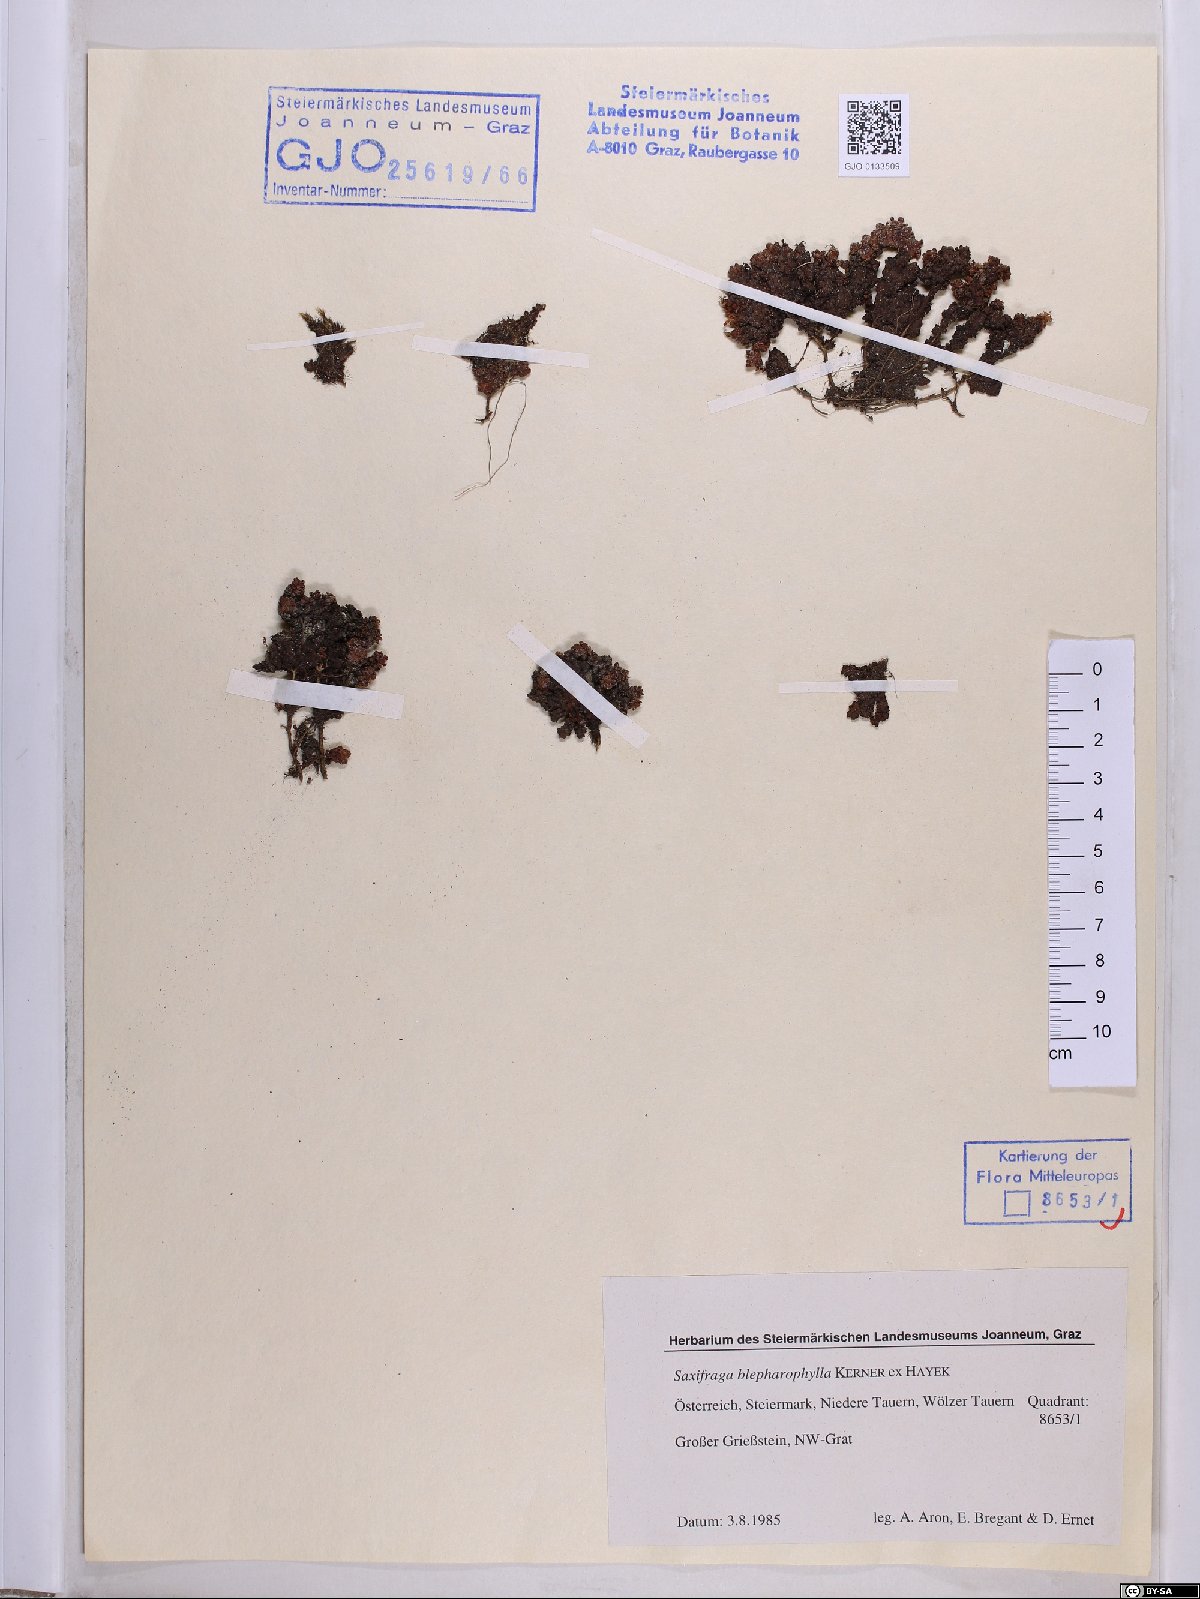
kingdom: Plantae
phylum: Tracheophyta
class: Magnoliopsida
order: Saxifragales
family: Saxifragaceae
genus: Saxifraga
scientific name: Saxifraga oppositifolia
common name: Purple saxifrage
